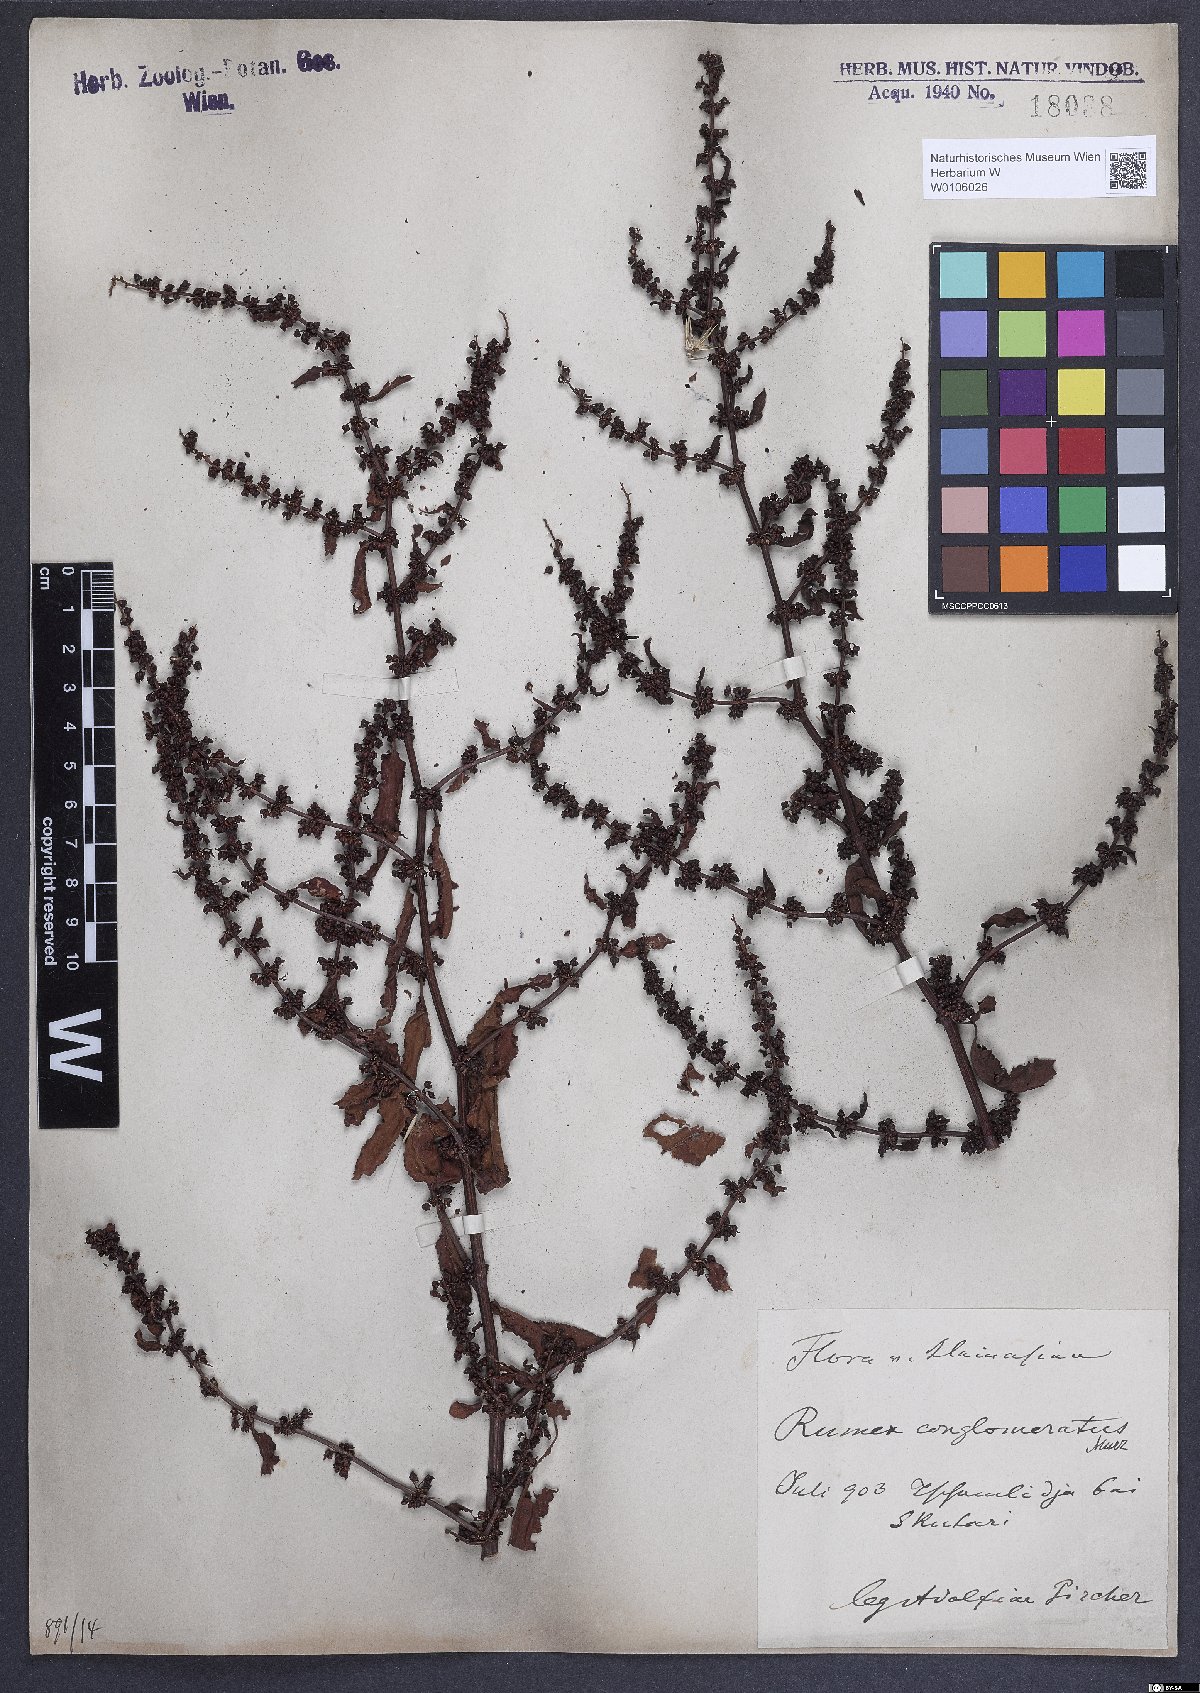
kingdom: Plantae
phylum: Tracheophyta
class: Magnoliopsida
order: Caryophyllales
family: Polygonaceae
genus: Rumex
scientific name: Rumex conglomeratus
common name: Clustered dock
